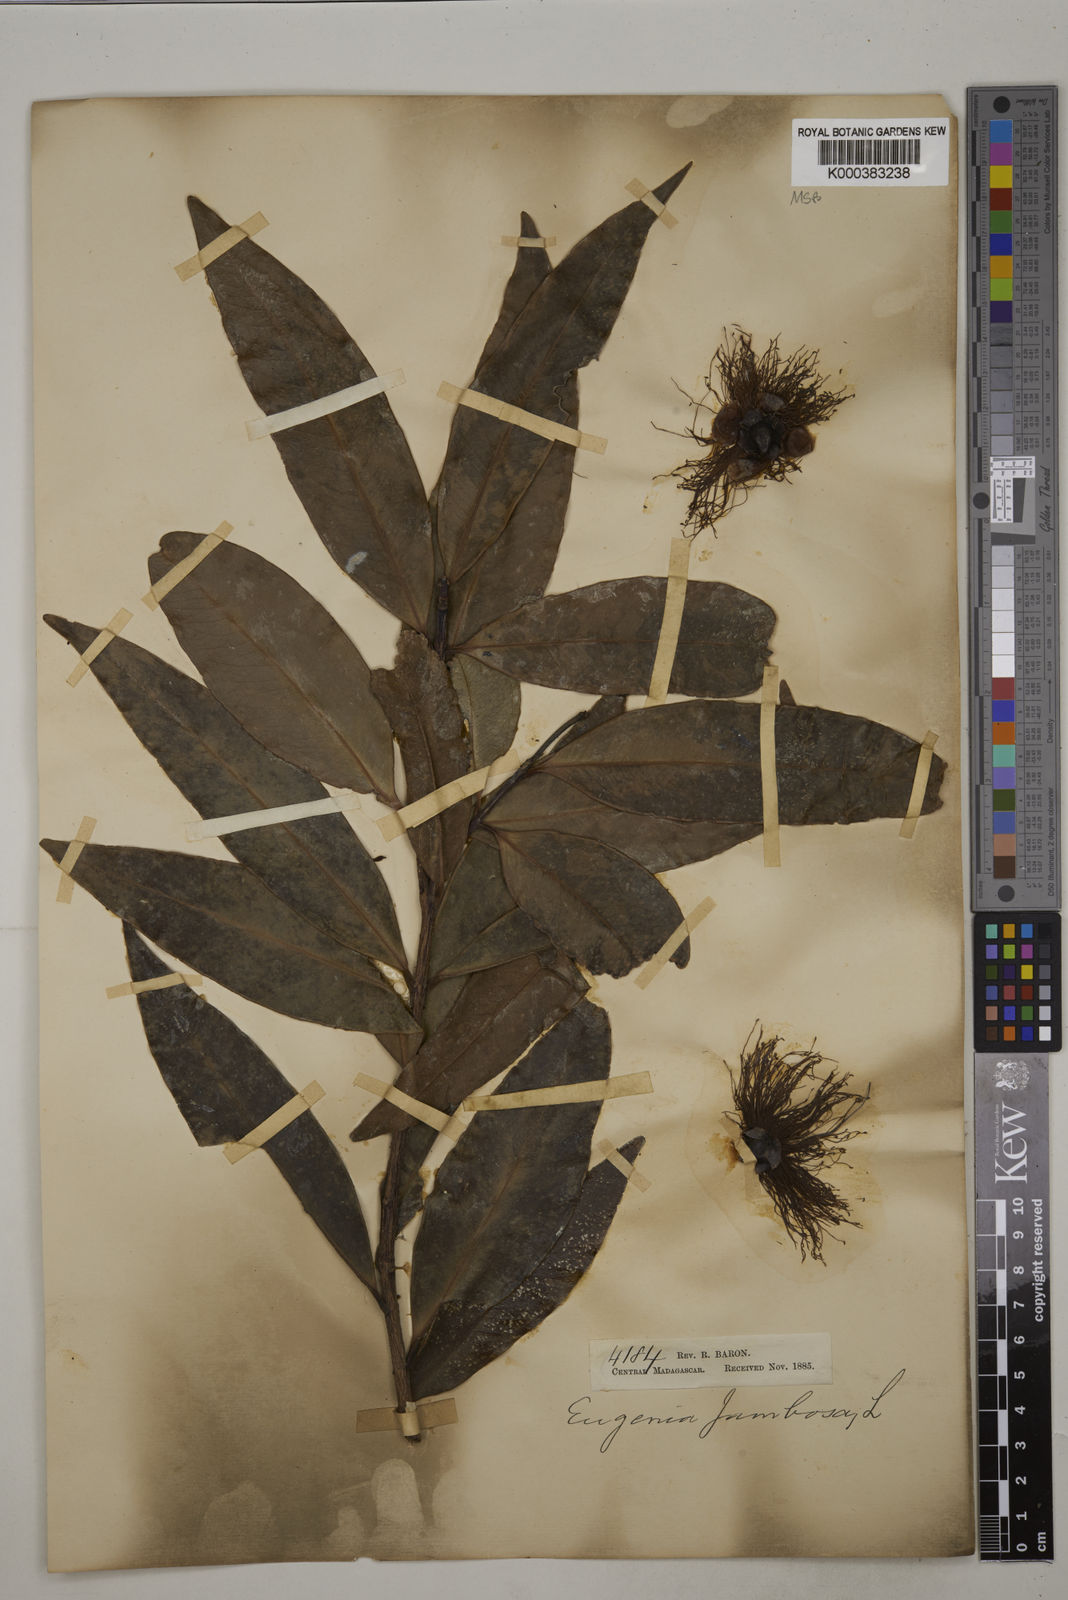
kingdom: Plantae
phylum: Tracheophyta
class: Magnoliopsida
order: Myrtales
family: Myrtaceae
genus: Syzygium
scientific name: Syzygium jambos
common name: Malabar plum
